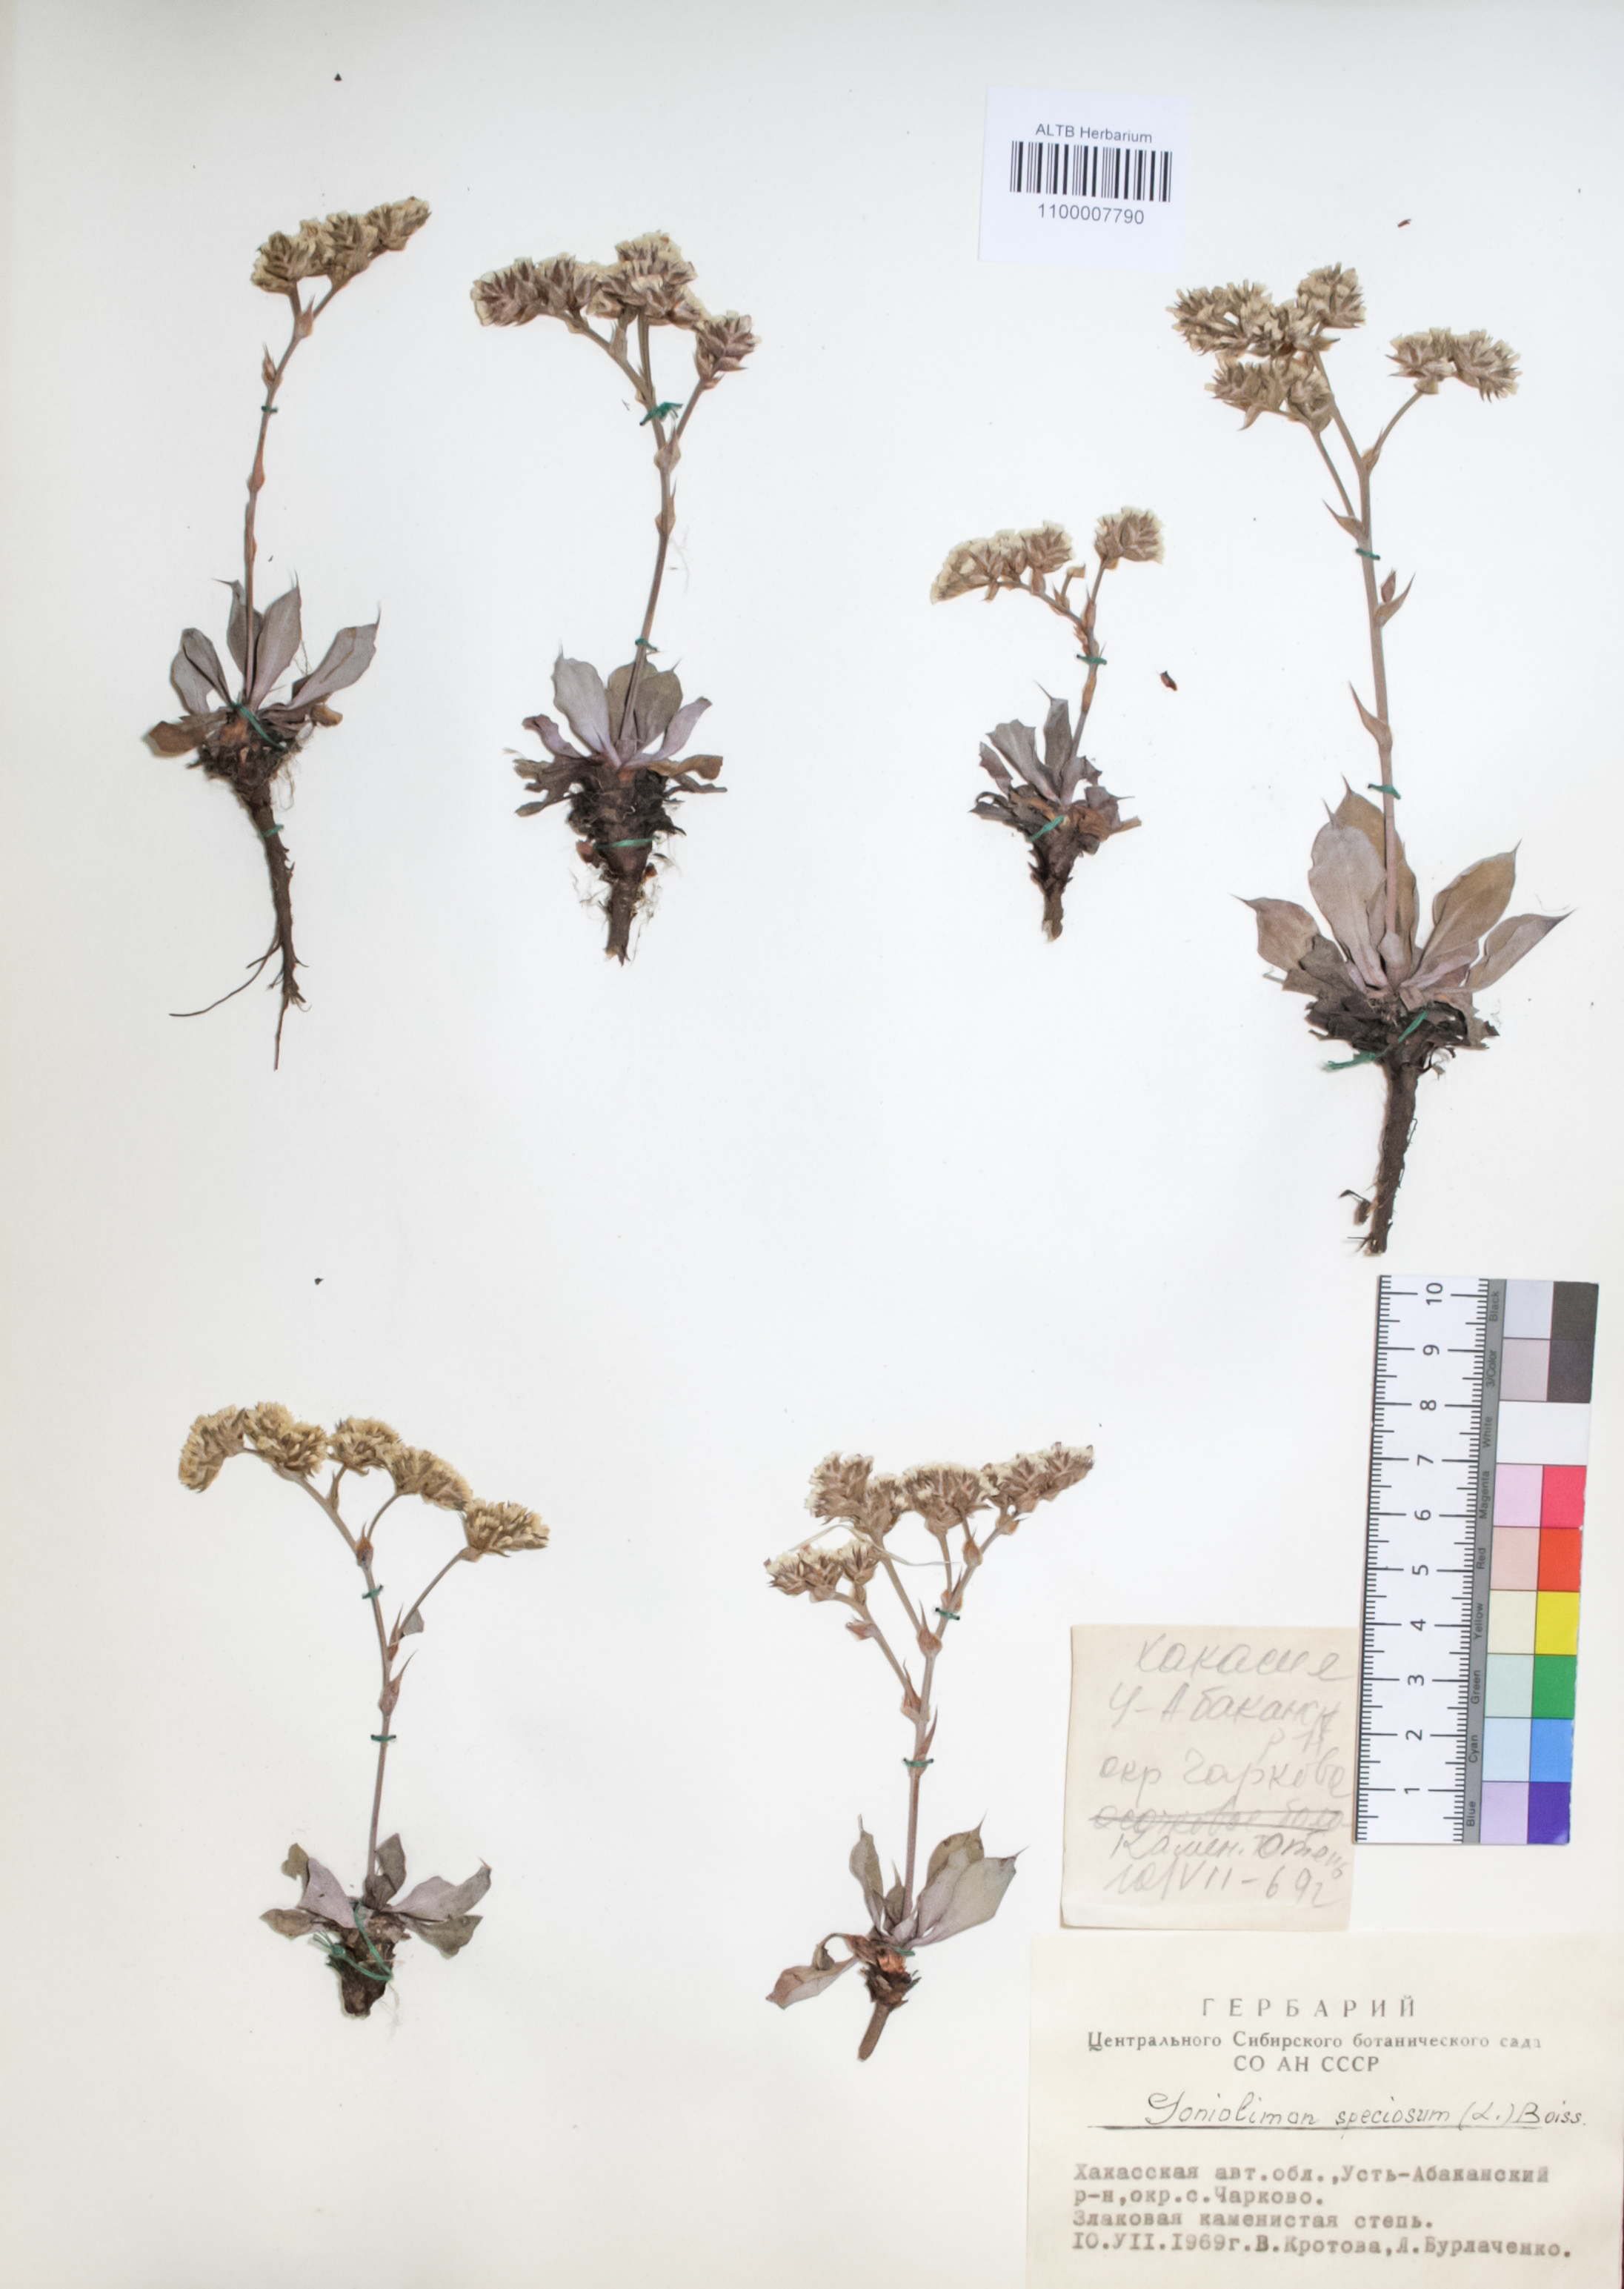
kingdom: Plantae
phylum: Tracheophyta
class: Magnoliopsida
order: Caryophyllales
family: Plumbaginaceae
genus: Goniolimon
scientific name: Goniolimon speciosum
